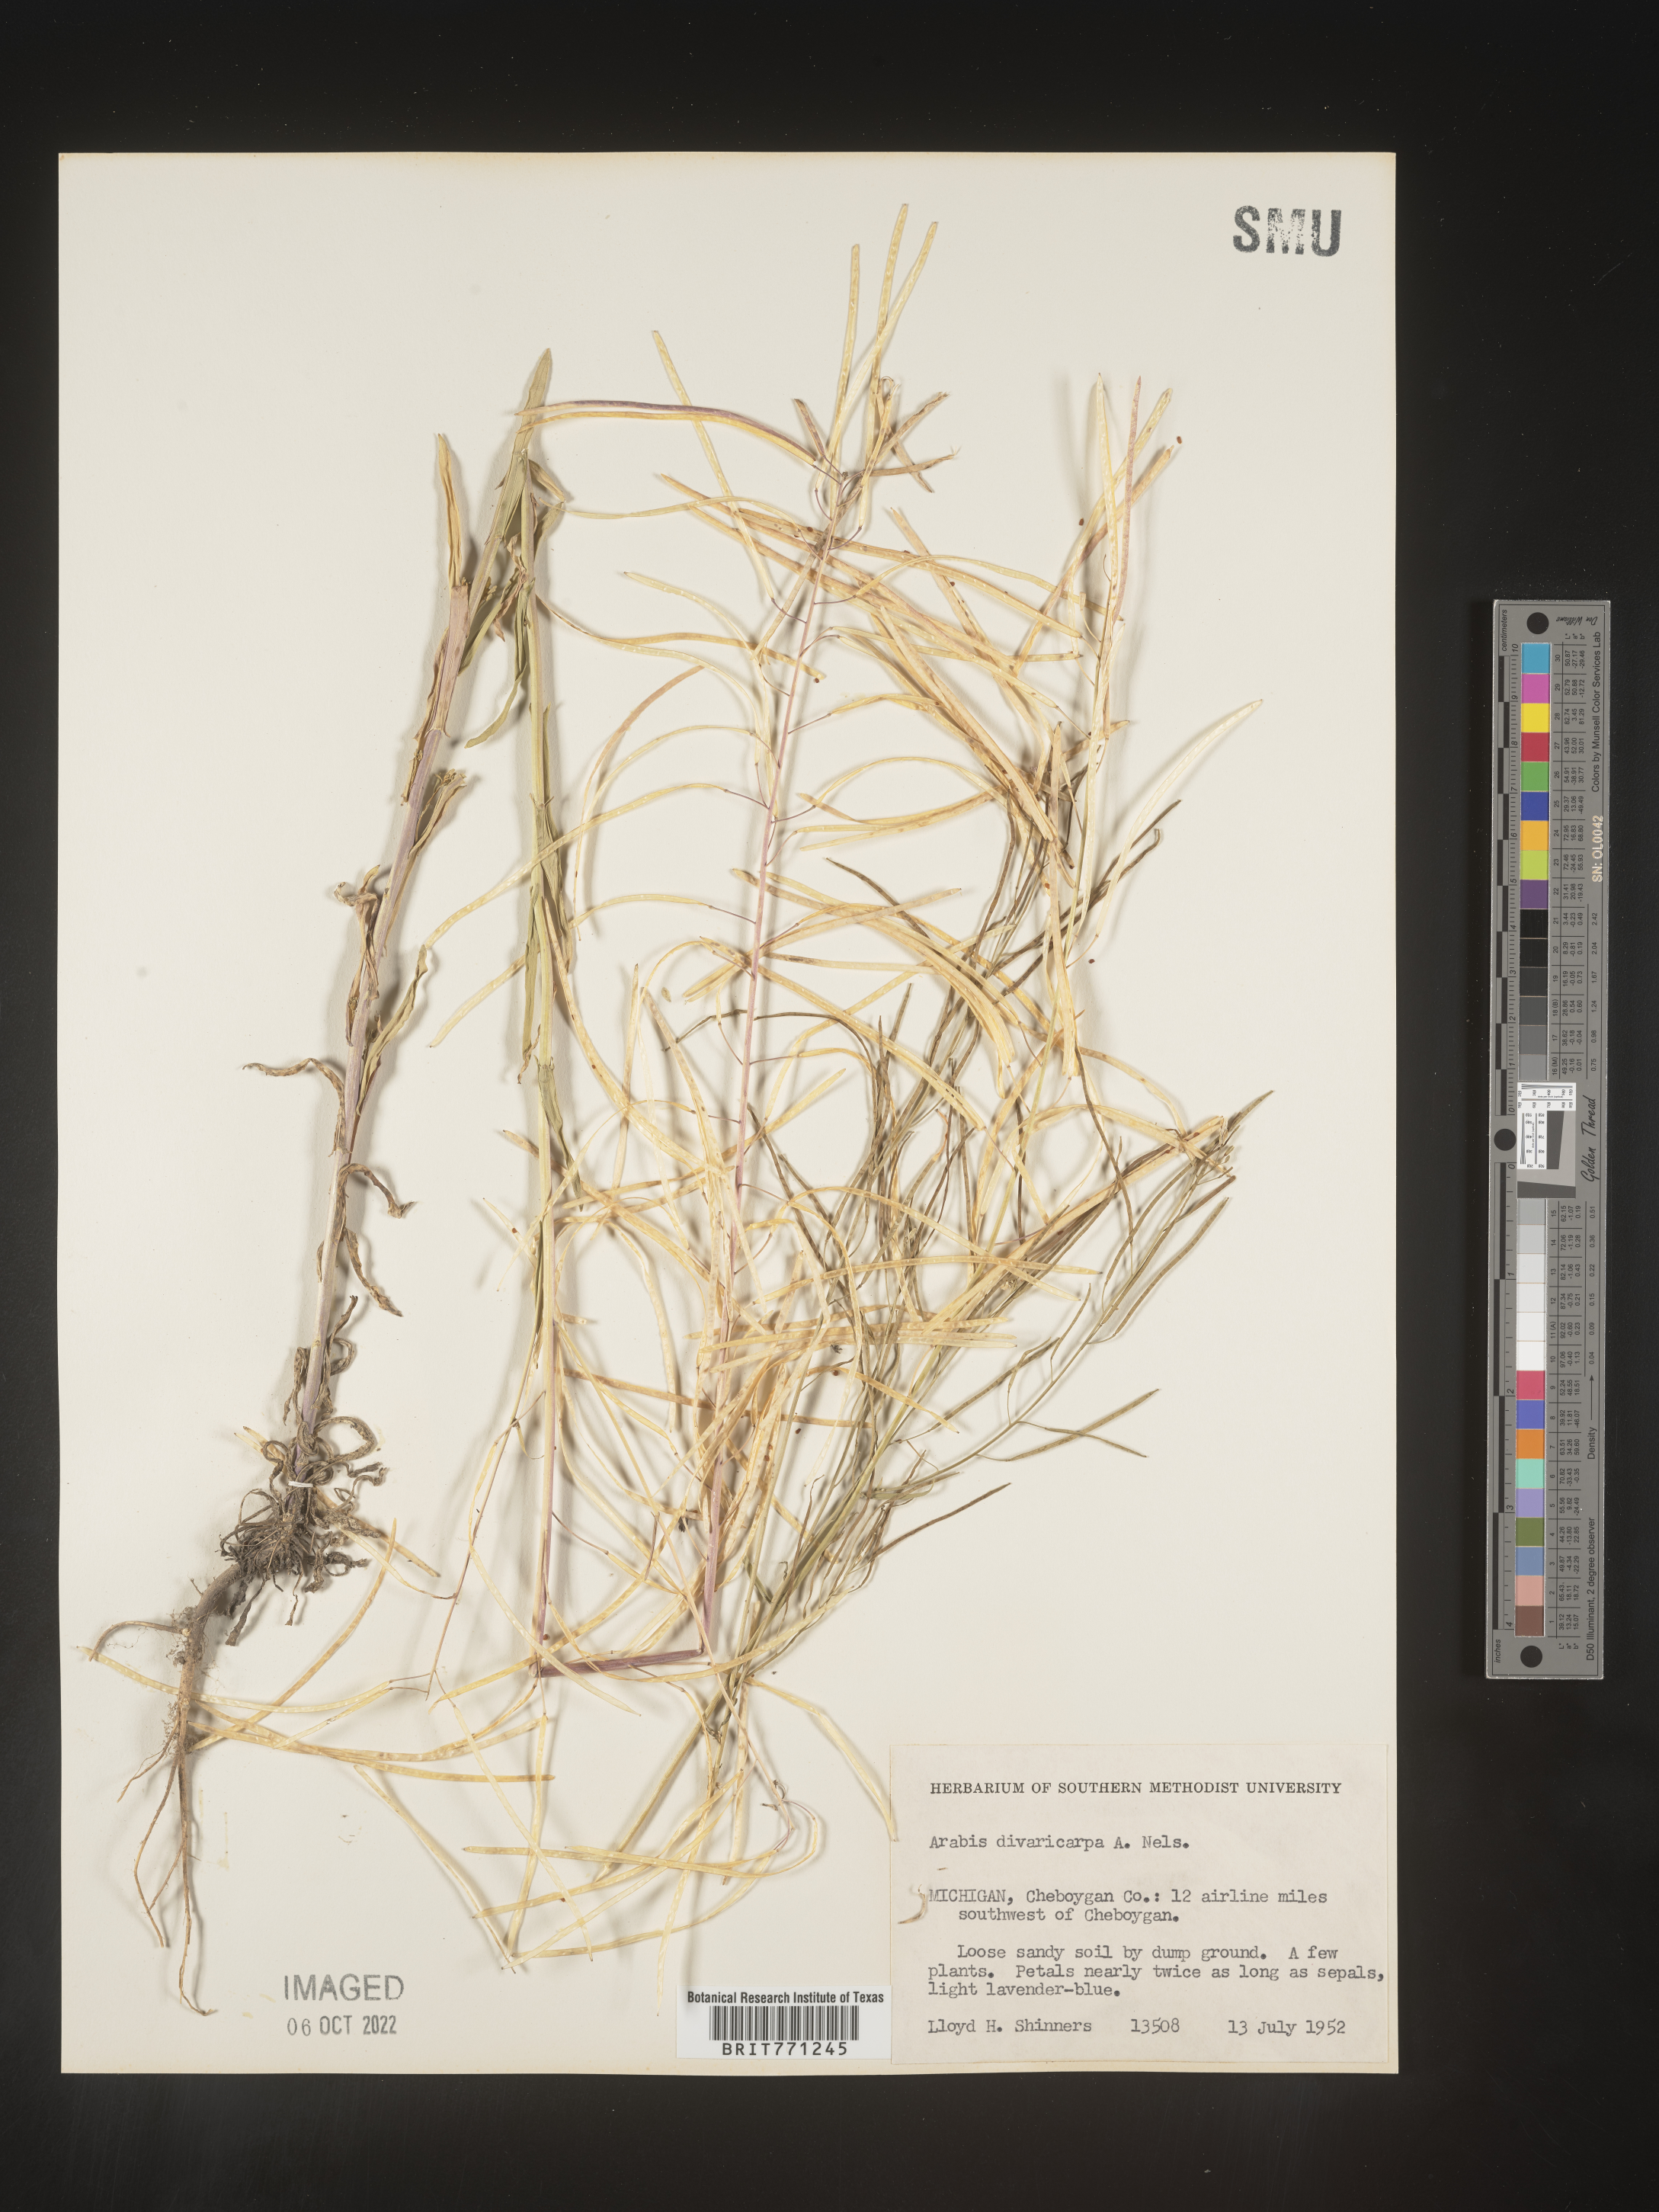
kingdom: Plantae
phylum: Tracheophyta
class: Magnoliopsida
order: Brassicales
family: Brassicaceae
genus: Boechera
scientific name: Boechera divaricarpa
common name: Divaricate rockcress
